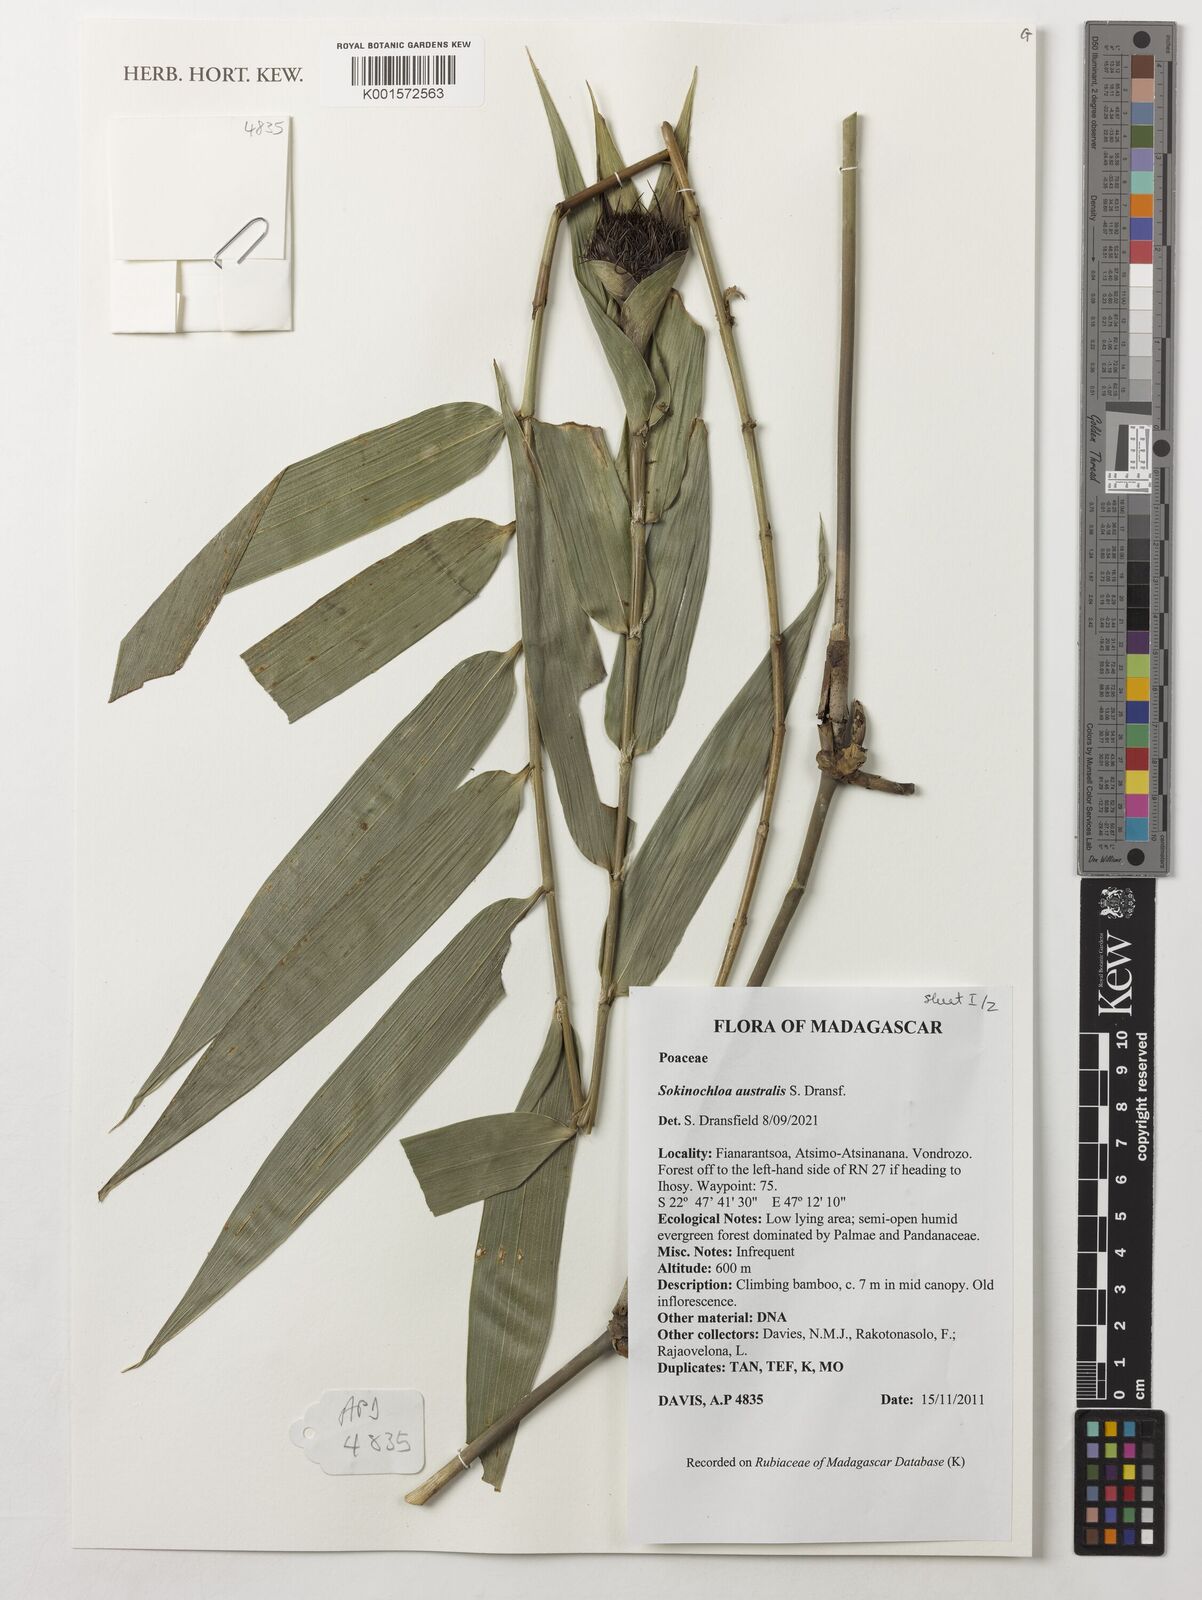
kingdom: Plantae
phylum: Tracheophyta
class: Liliopsida
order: Poales
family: Poaceae
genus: Sokinochloa
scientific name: Sokinochloa australis
